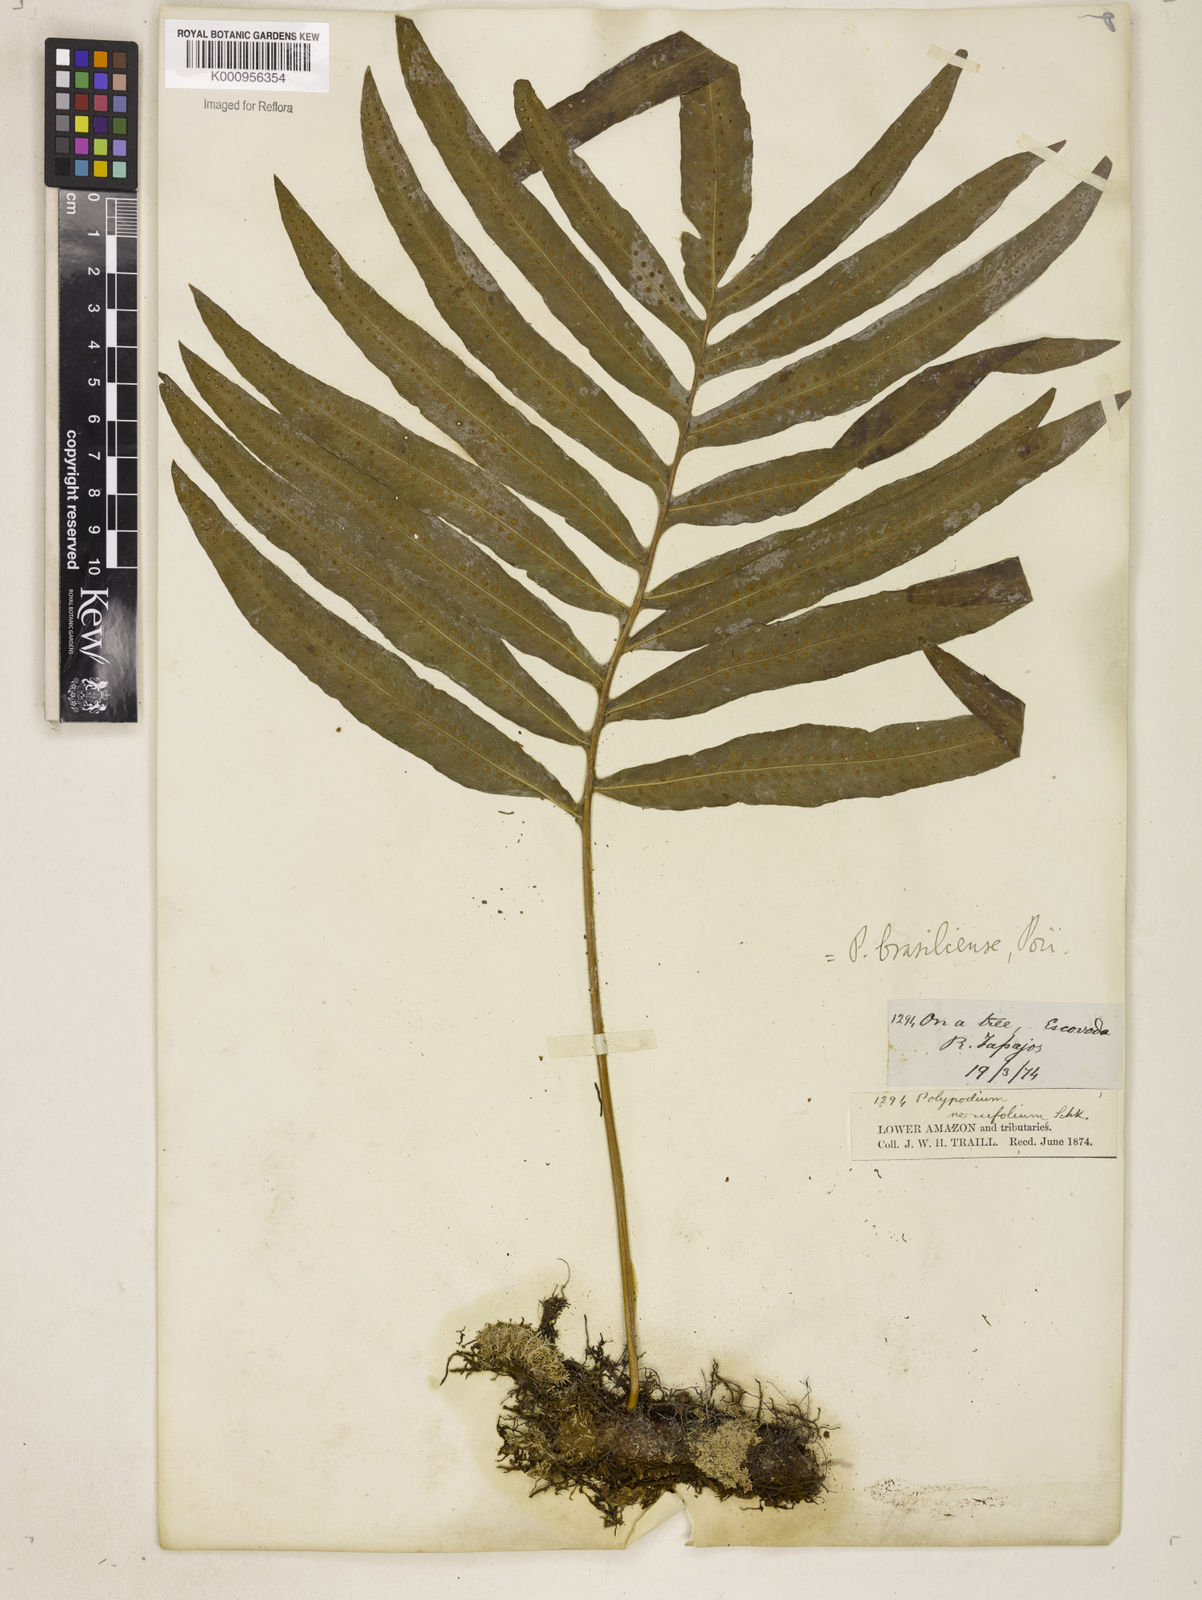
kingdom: Plantae
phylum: Tracheophyta
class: Polypodiopsida
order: Polypodiales
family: Polypodiaceae
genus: Serpocaulon
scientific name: Serpocaulon triseriale
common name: Angle-vein fern
